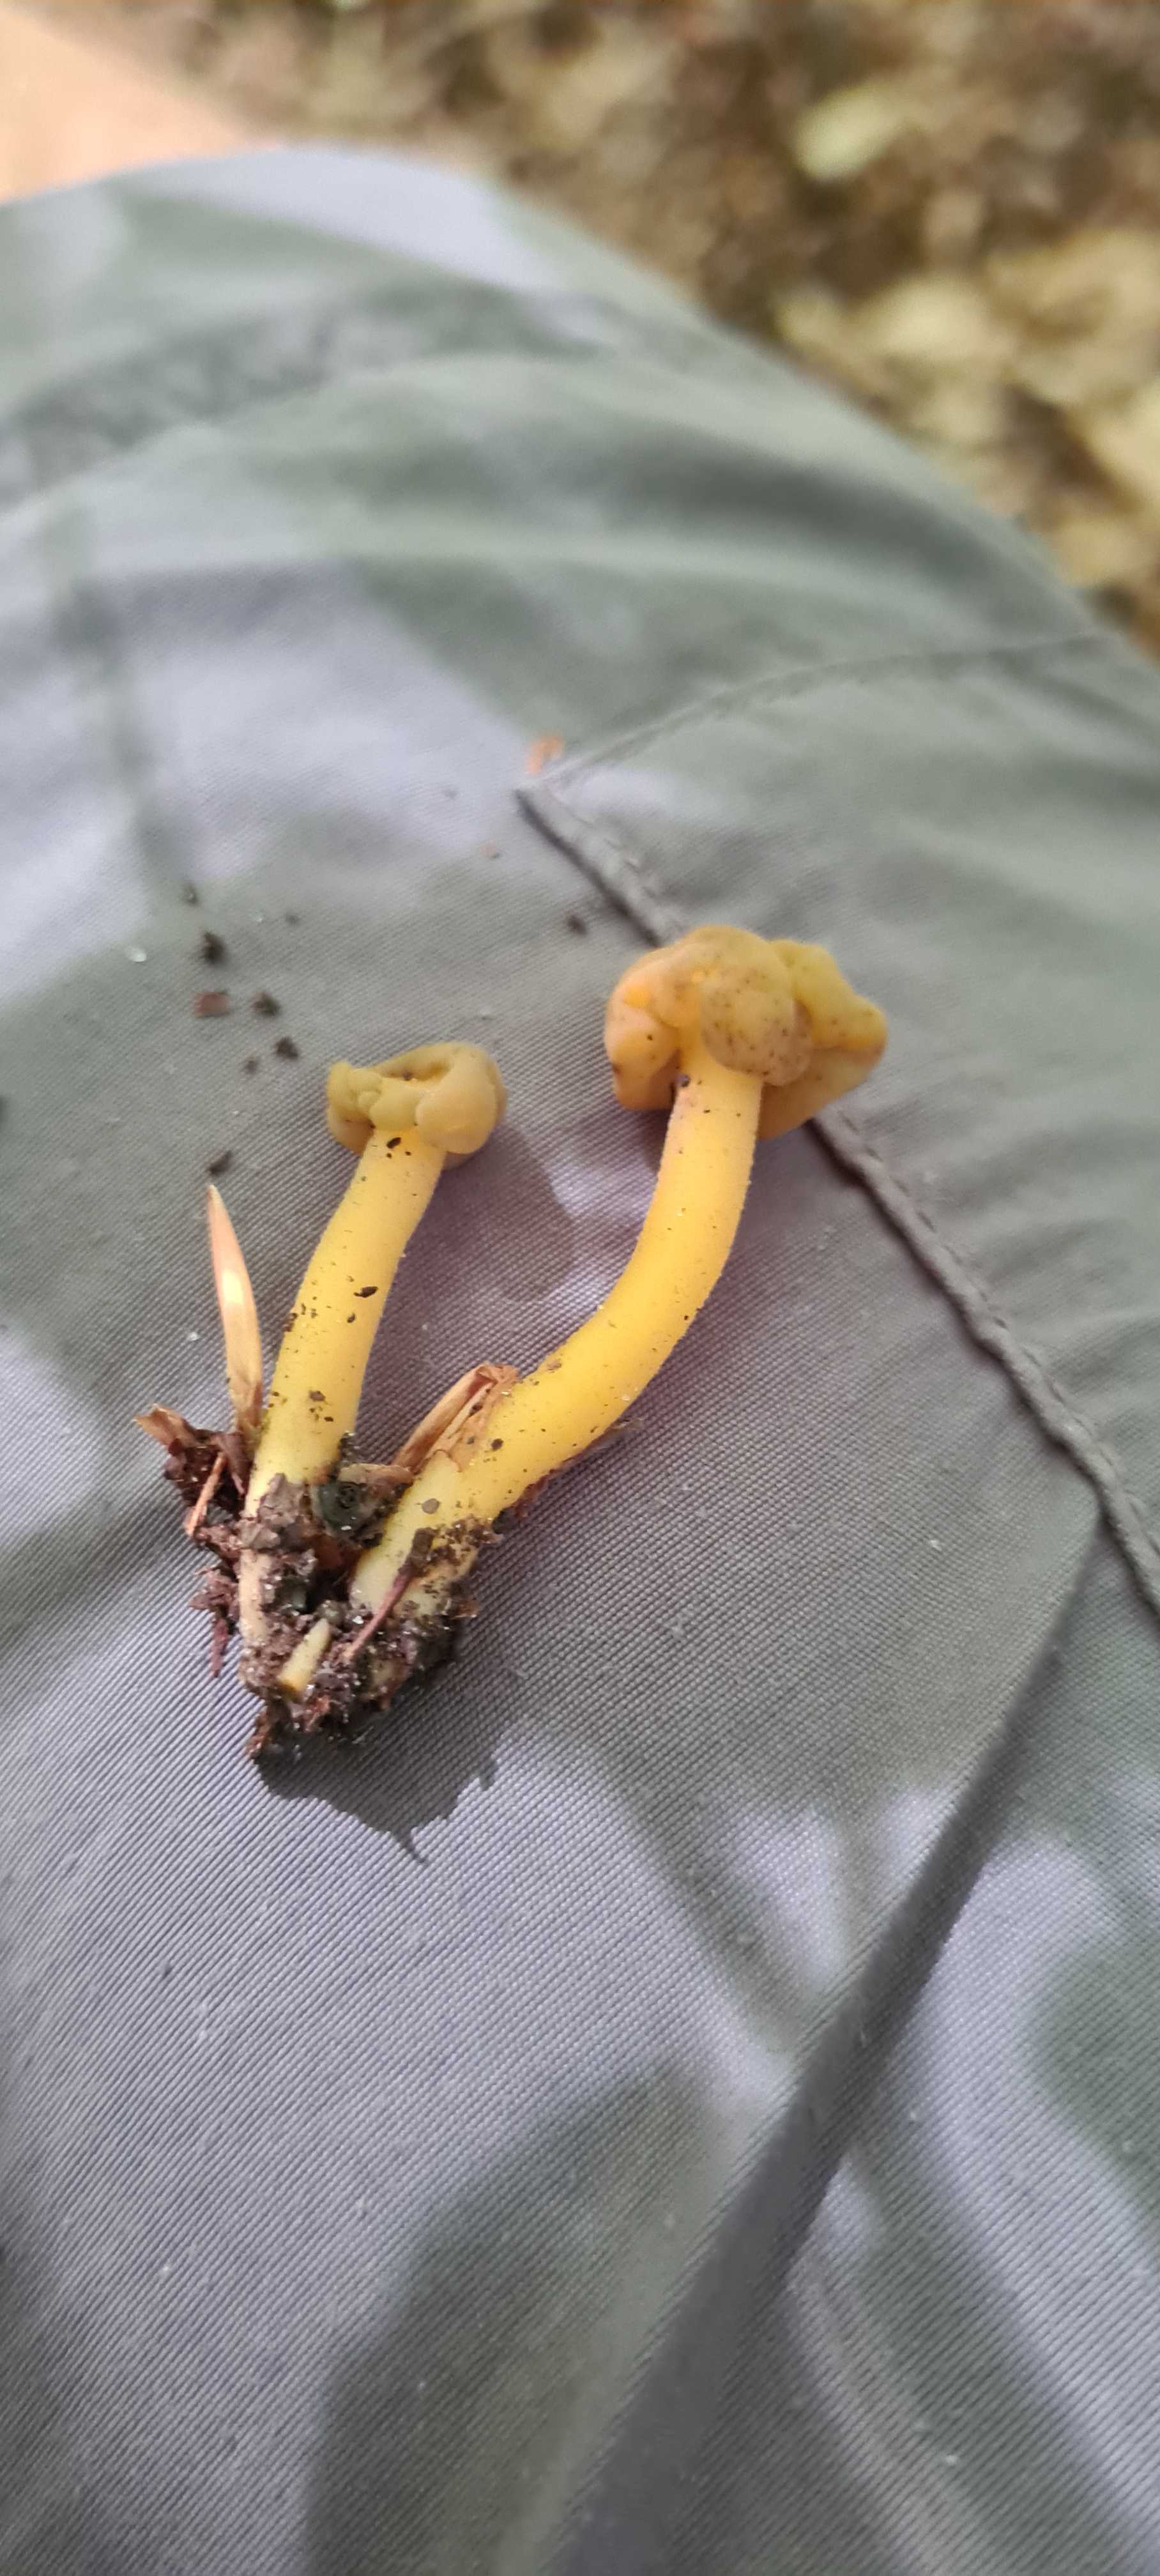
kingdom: Fungi
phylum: Ascomycota
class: Leotiomycetes
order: Leotiales
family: Leotiaceae
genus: Leotia
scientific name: Leotia lubrica
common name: ravsvamp
